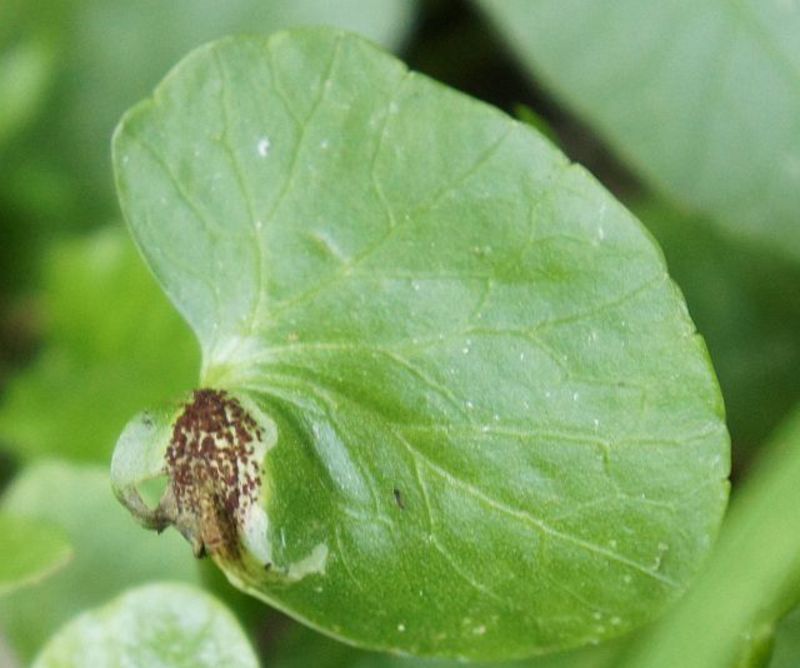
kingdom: Fungi
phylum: Basidiomycota
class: Pucciniomycetes
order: Pucciniales
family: Pucciniaceae
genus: Uromyces
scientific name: Uromyces ficariae
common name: Bitter chocolate rust
